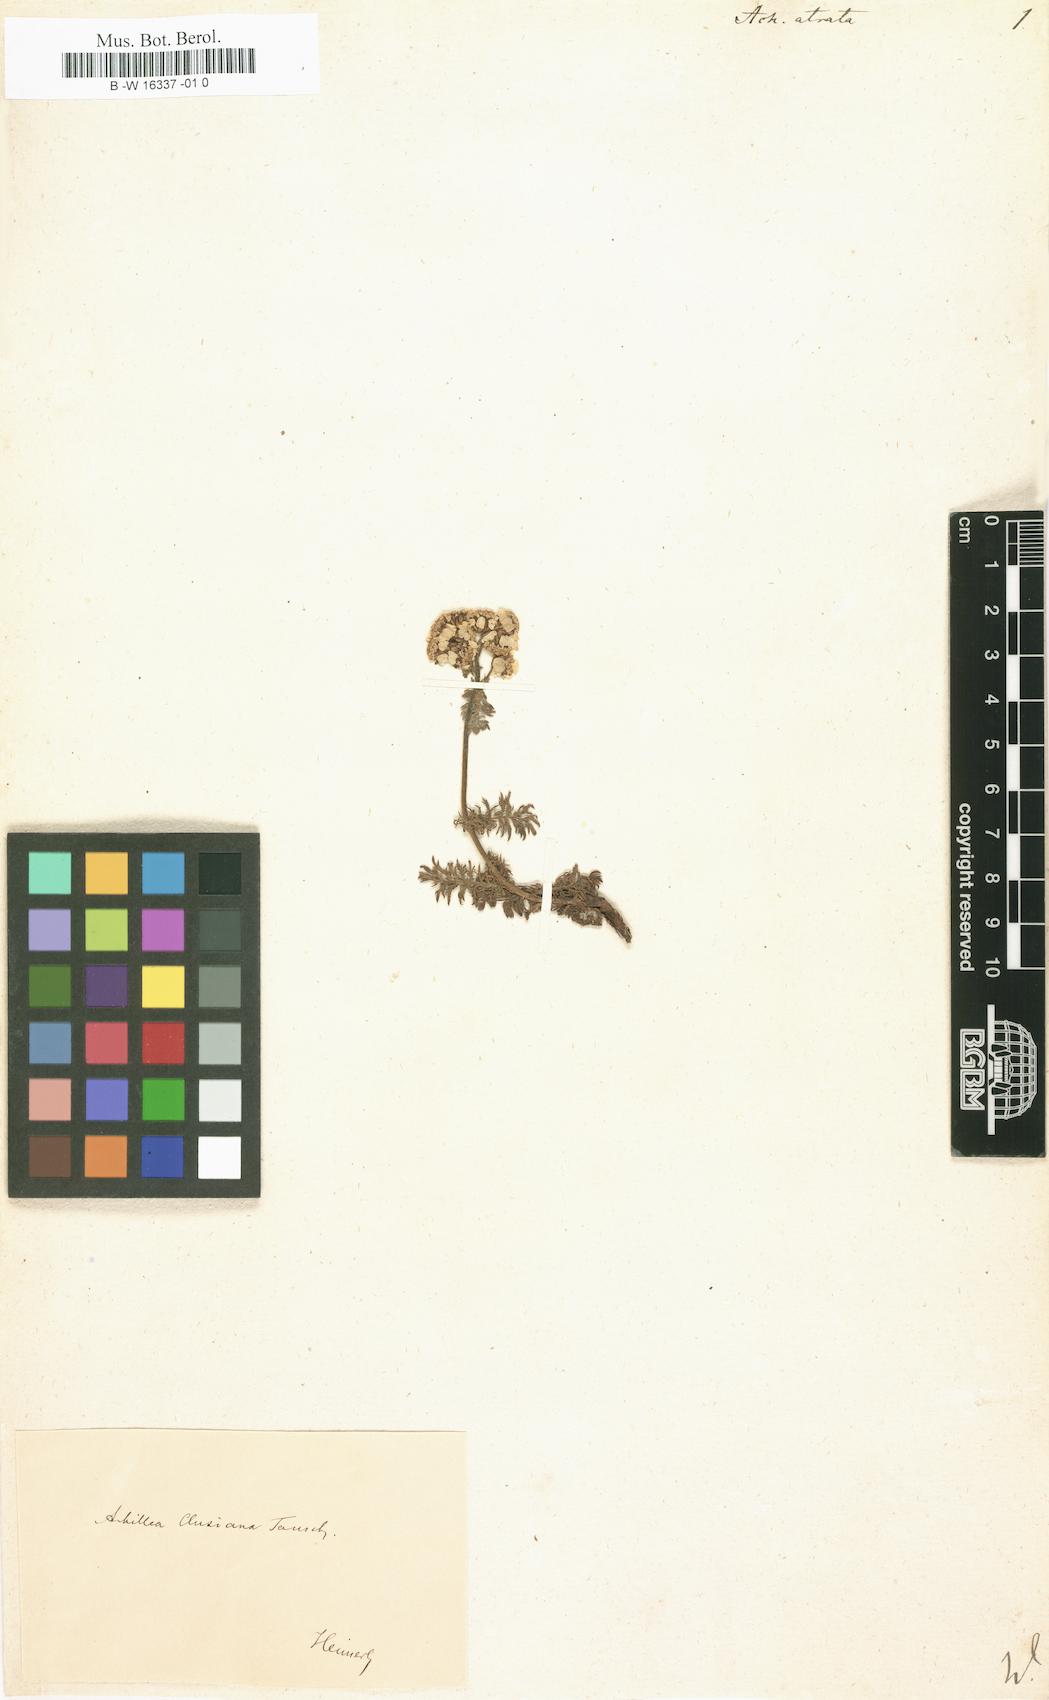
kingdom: Plantae
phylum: Tracheophyta
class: Magnoliopsida
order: Asterales
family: Asteraceae
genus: Achillea
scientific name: Achillea atrata
